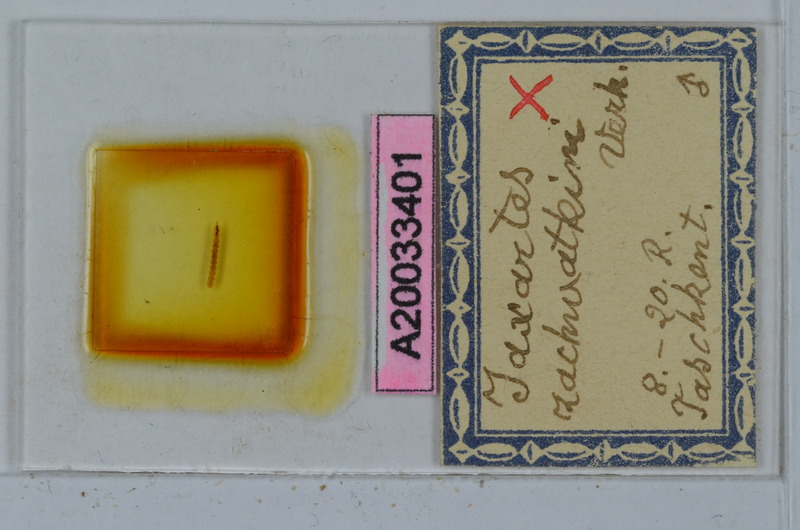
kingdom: Animalia
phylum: Arthropoda
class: Diplopoda
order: Polydesmida
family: Polydesmidae
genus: Jaxartes
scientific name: Jaxartes zachvatkini
